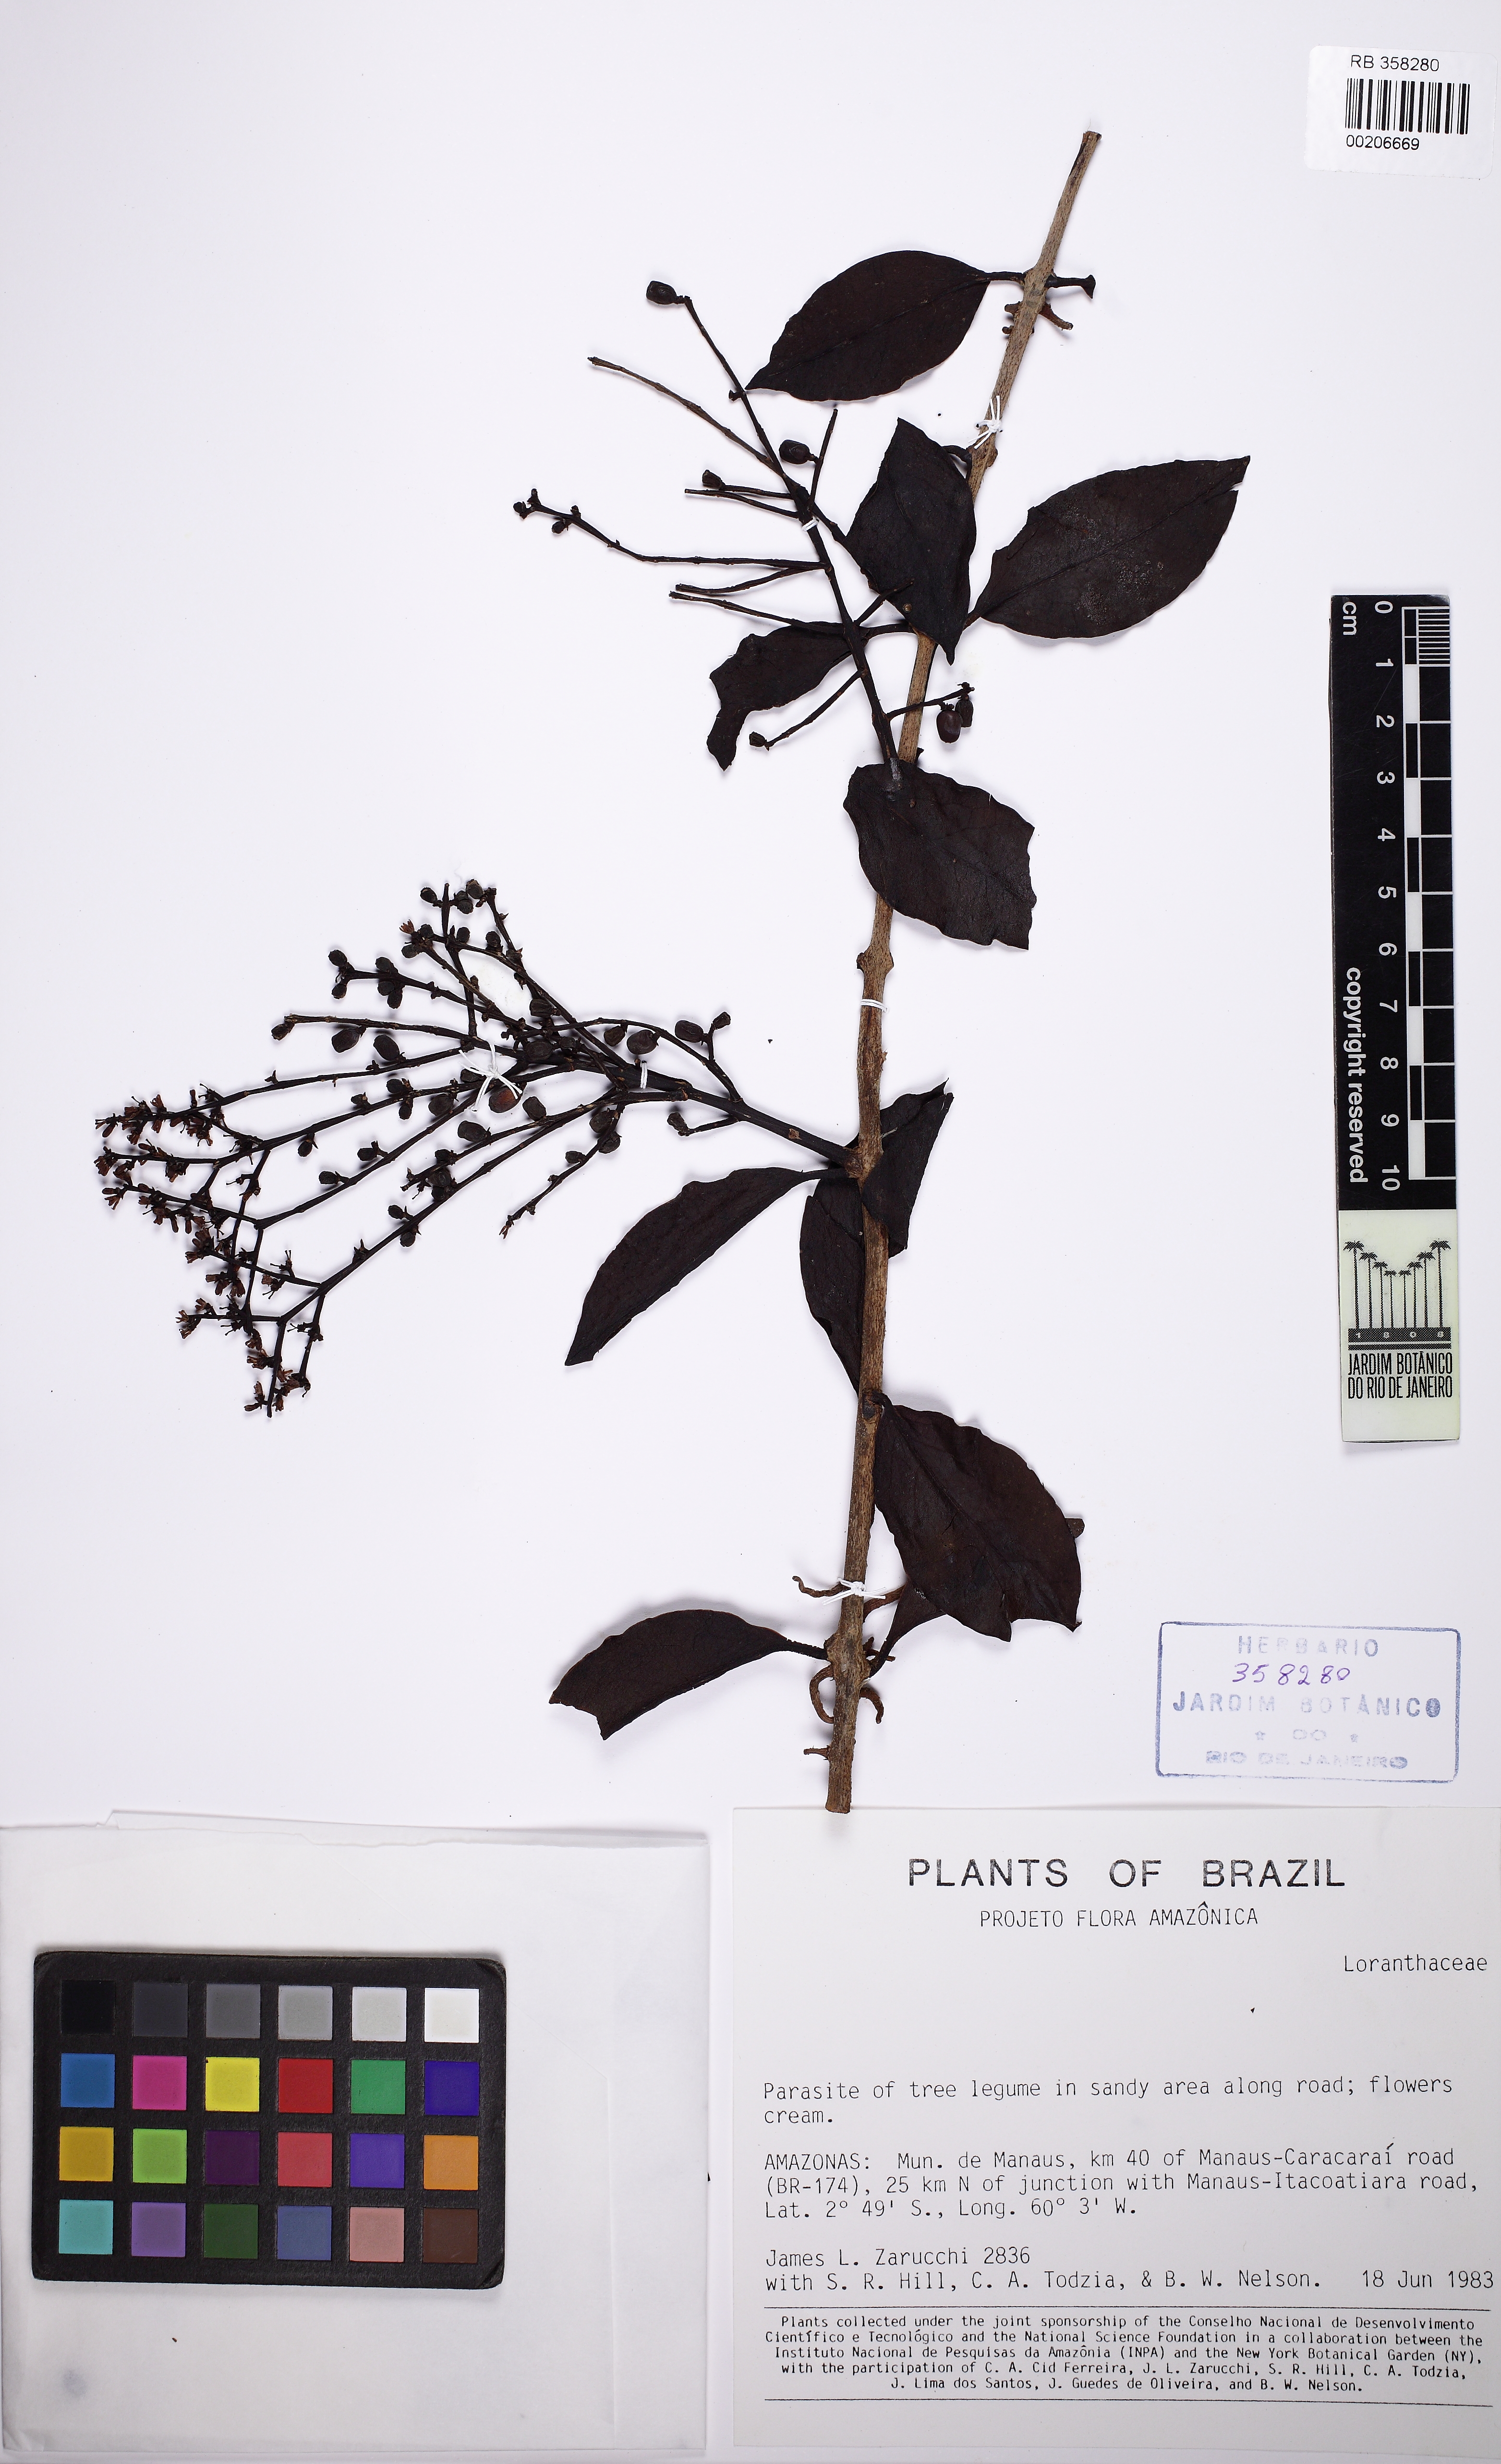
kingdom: Plantae
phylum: Tracheophyta
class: Magnoliopsida
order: Santalales
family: Loranthaceae
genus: Passovia
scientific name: Passovia pedunculata
